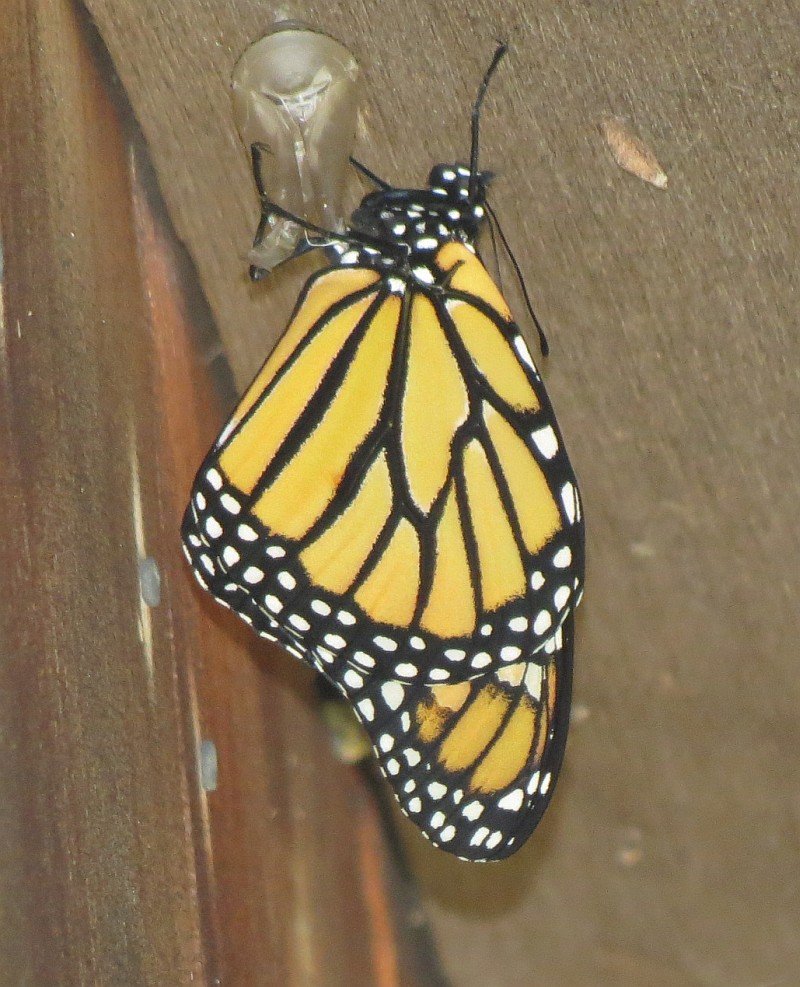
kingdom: Animalia
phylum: Arthropoda
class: Insecta
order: Lepidoptera
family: Nymphalidae
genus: Danaus
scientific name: Danaus plexippus
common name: Monarch
